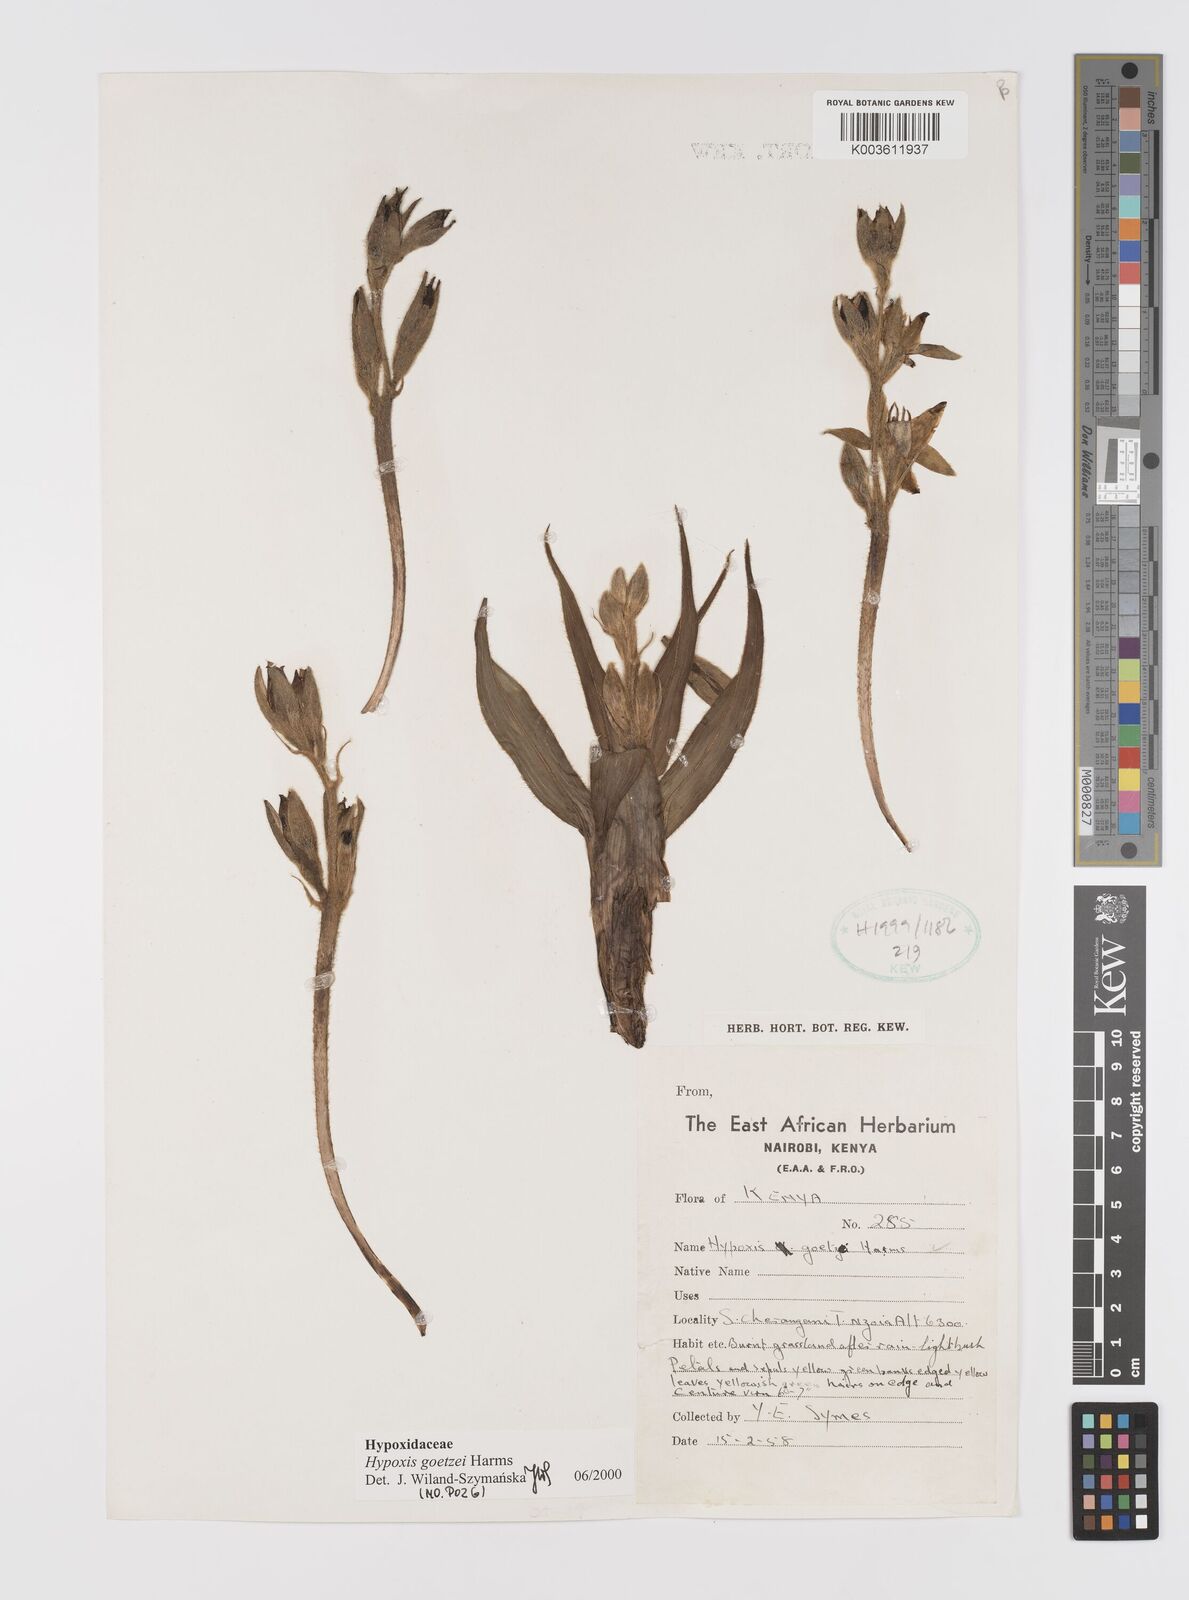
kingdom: Plantae
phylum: Tracheophyta
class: Liliopsida
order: Asparagales
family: Hypoxidaceae
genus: Hypoxis
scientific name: Hypoxis goetzei
